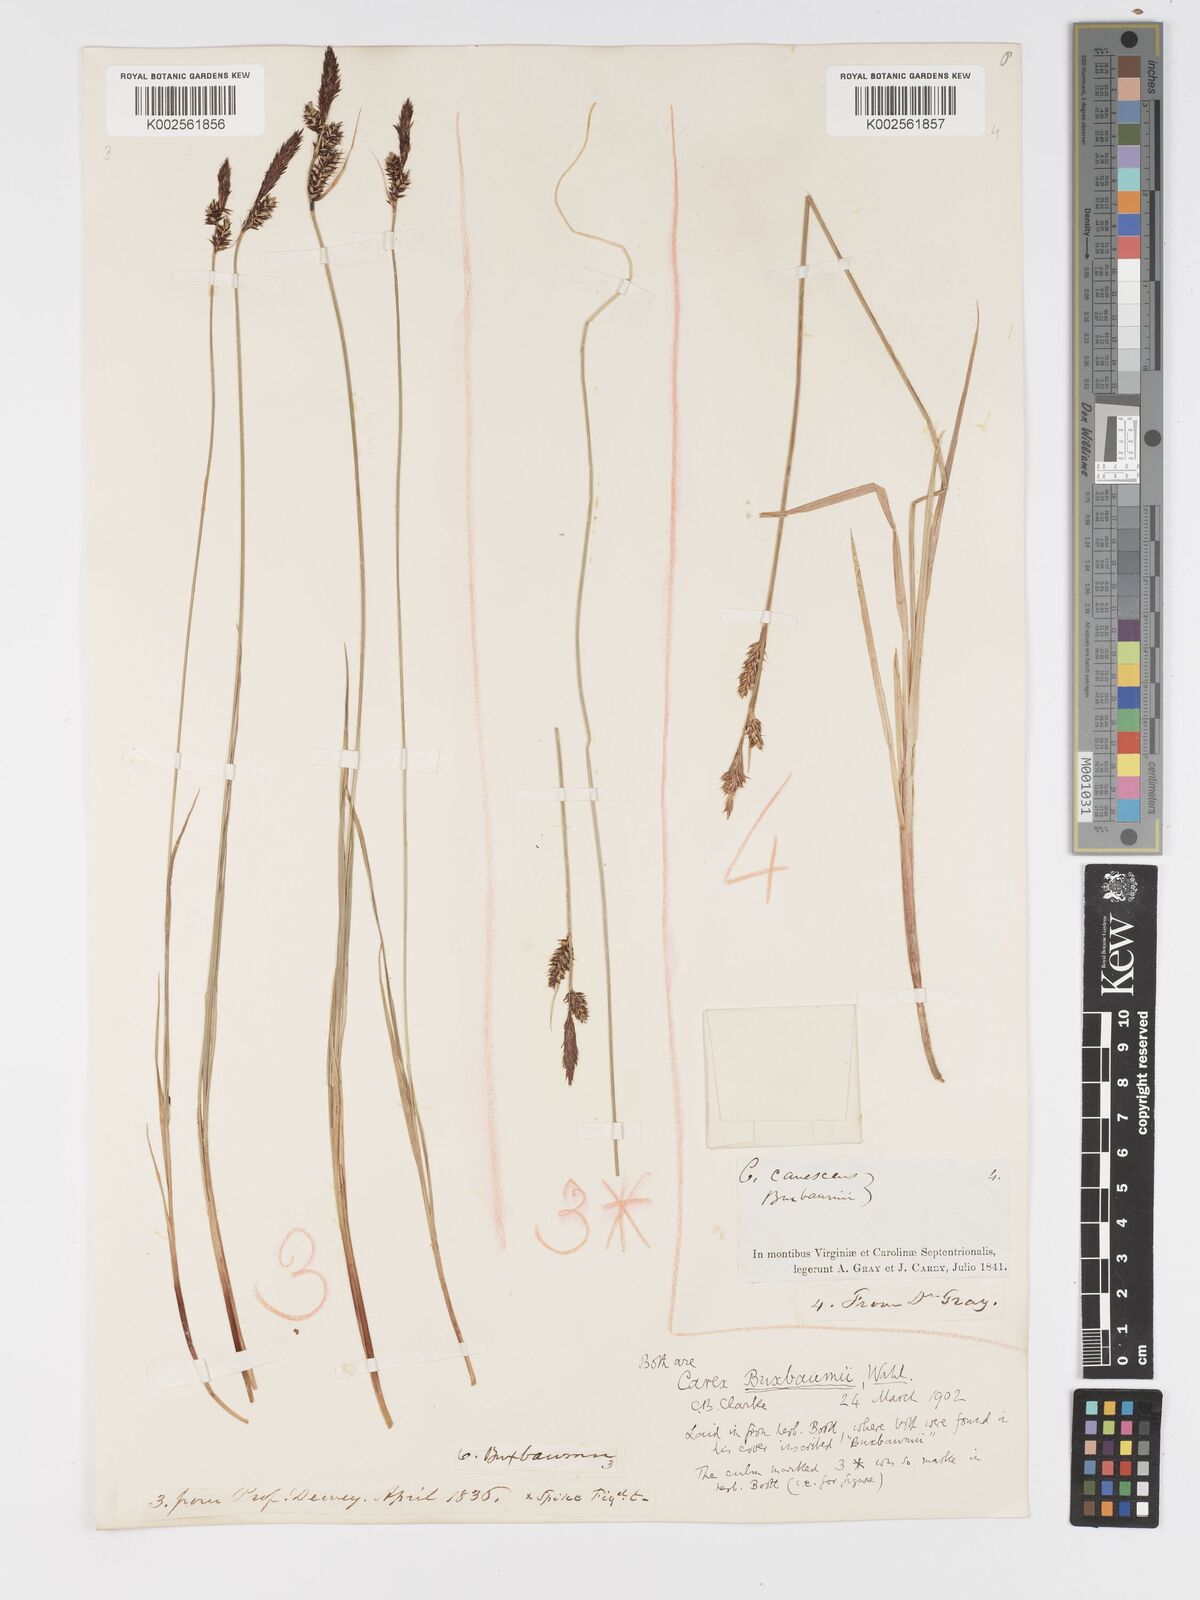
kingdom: Plantae
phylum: Tracheophyta
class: Liliopsida
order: Poales
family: Cyperaceae
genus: Carex
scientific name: Carex buxbaumii
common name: Club sedge
